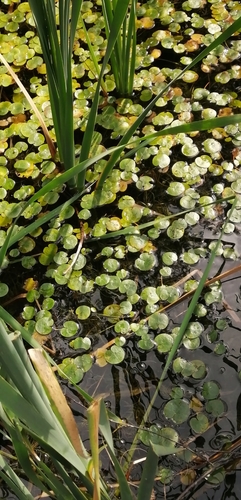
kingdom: Plantae
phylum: Tracheophyta
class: Liliopsida
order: Alismatales
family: Hydrocharitaceae
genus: Hydrocharis
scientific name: Hydrocharis morsus-ranae
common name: European frog-bit
